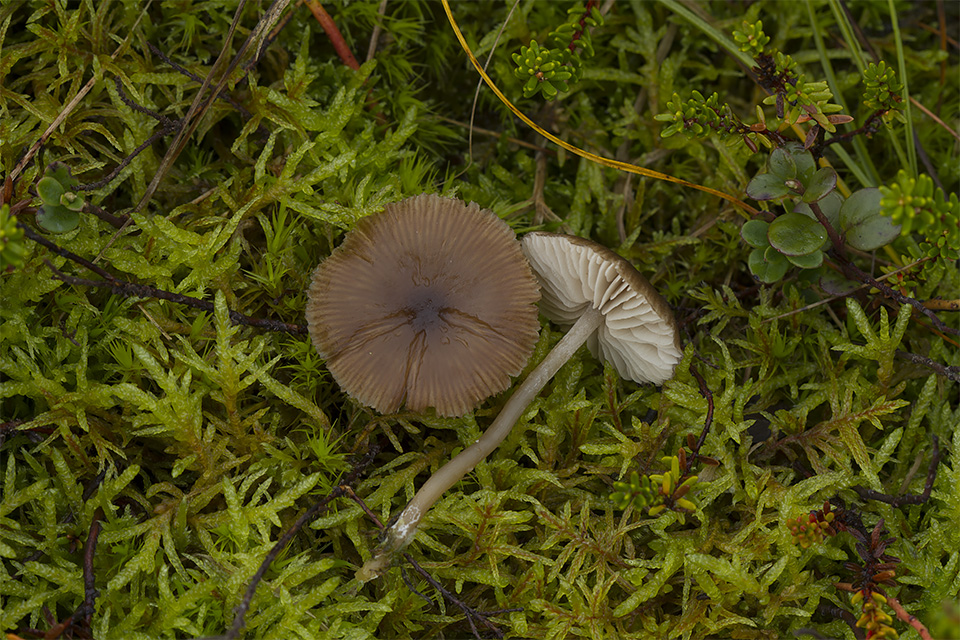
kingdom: Fungi
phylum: Basidiomycota
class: Agaricomycetes
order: Agaricales
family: Entolomataceae
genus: Entocybe
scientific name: Entocybe vinacea
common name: november-rødblad
